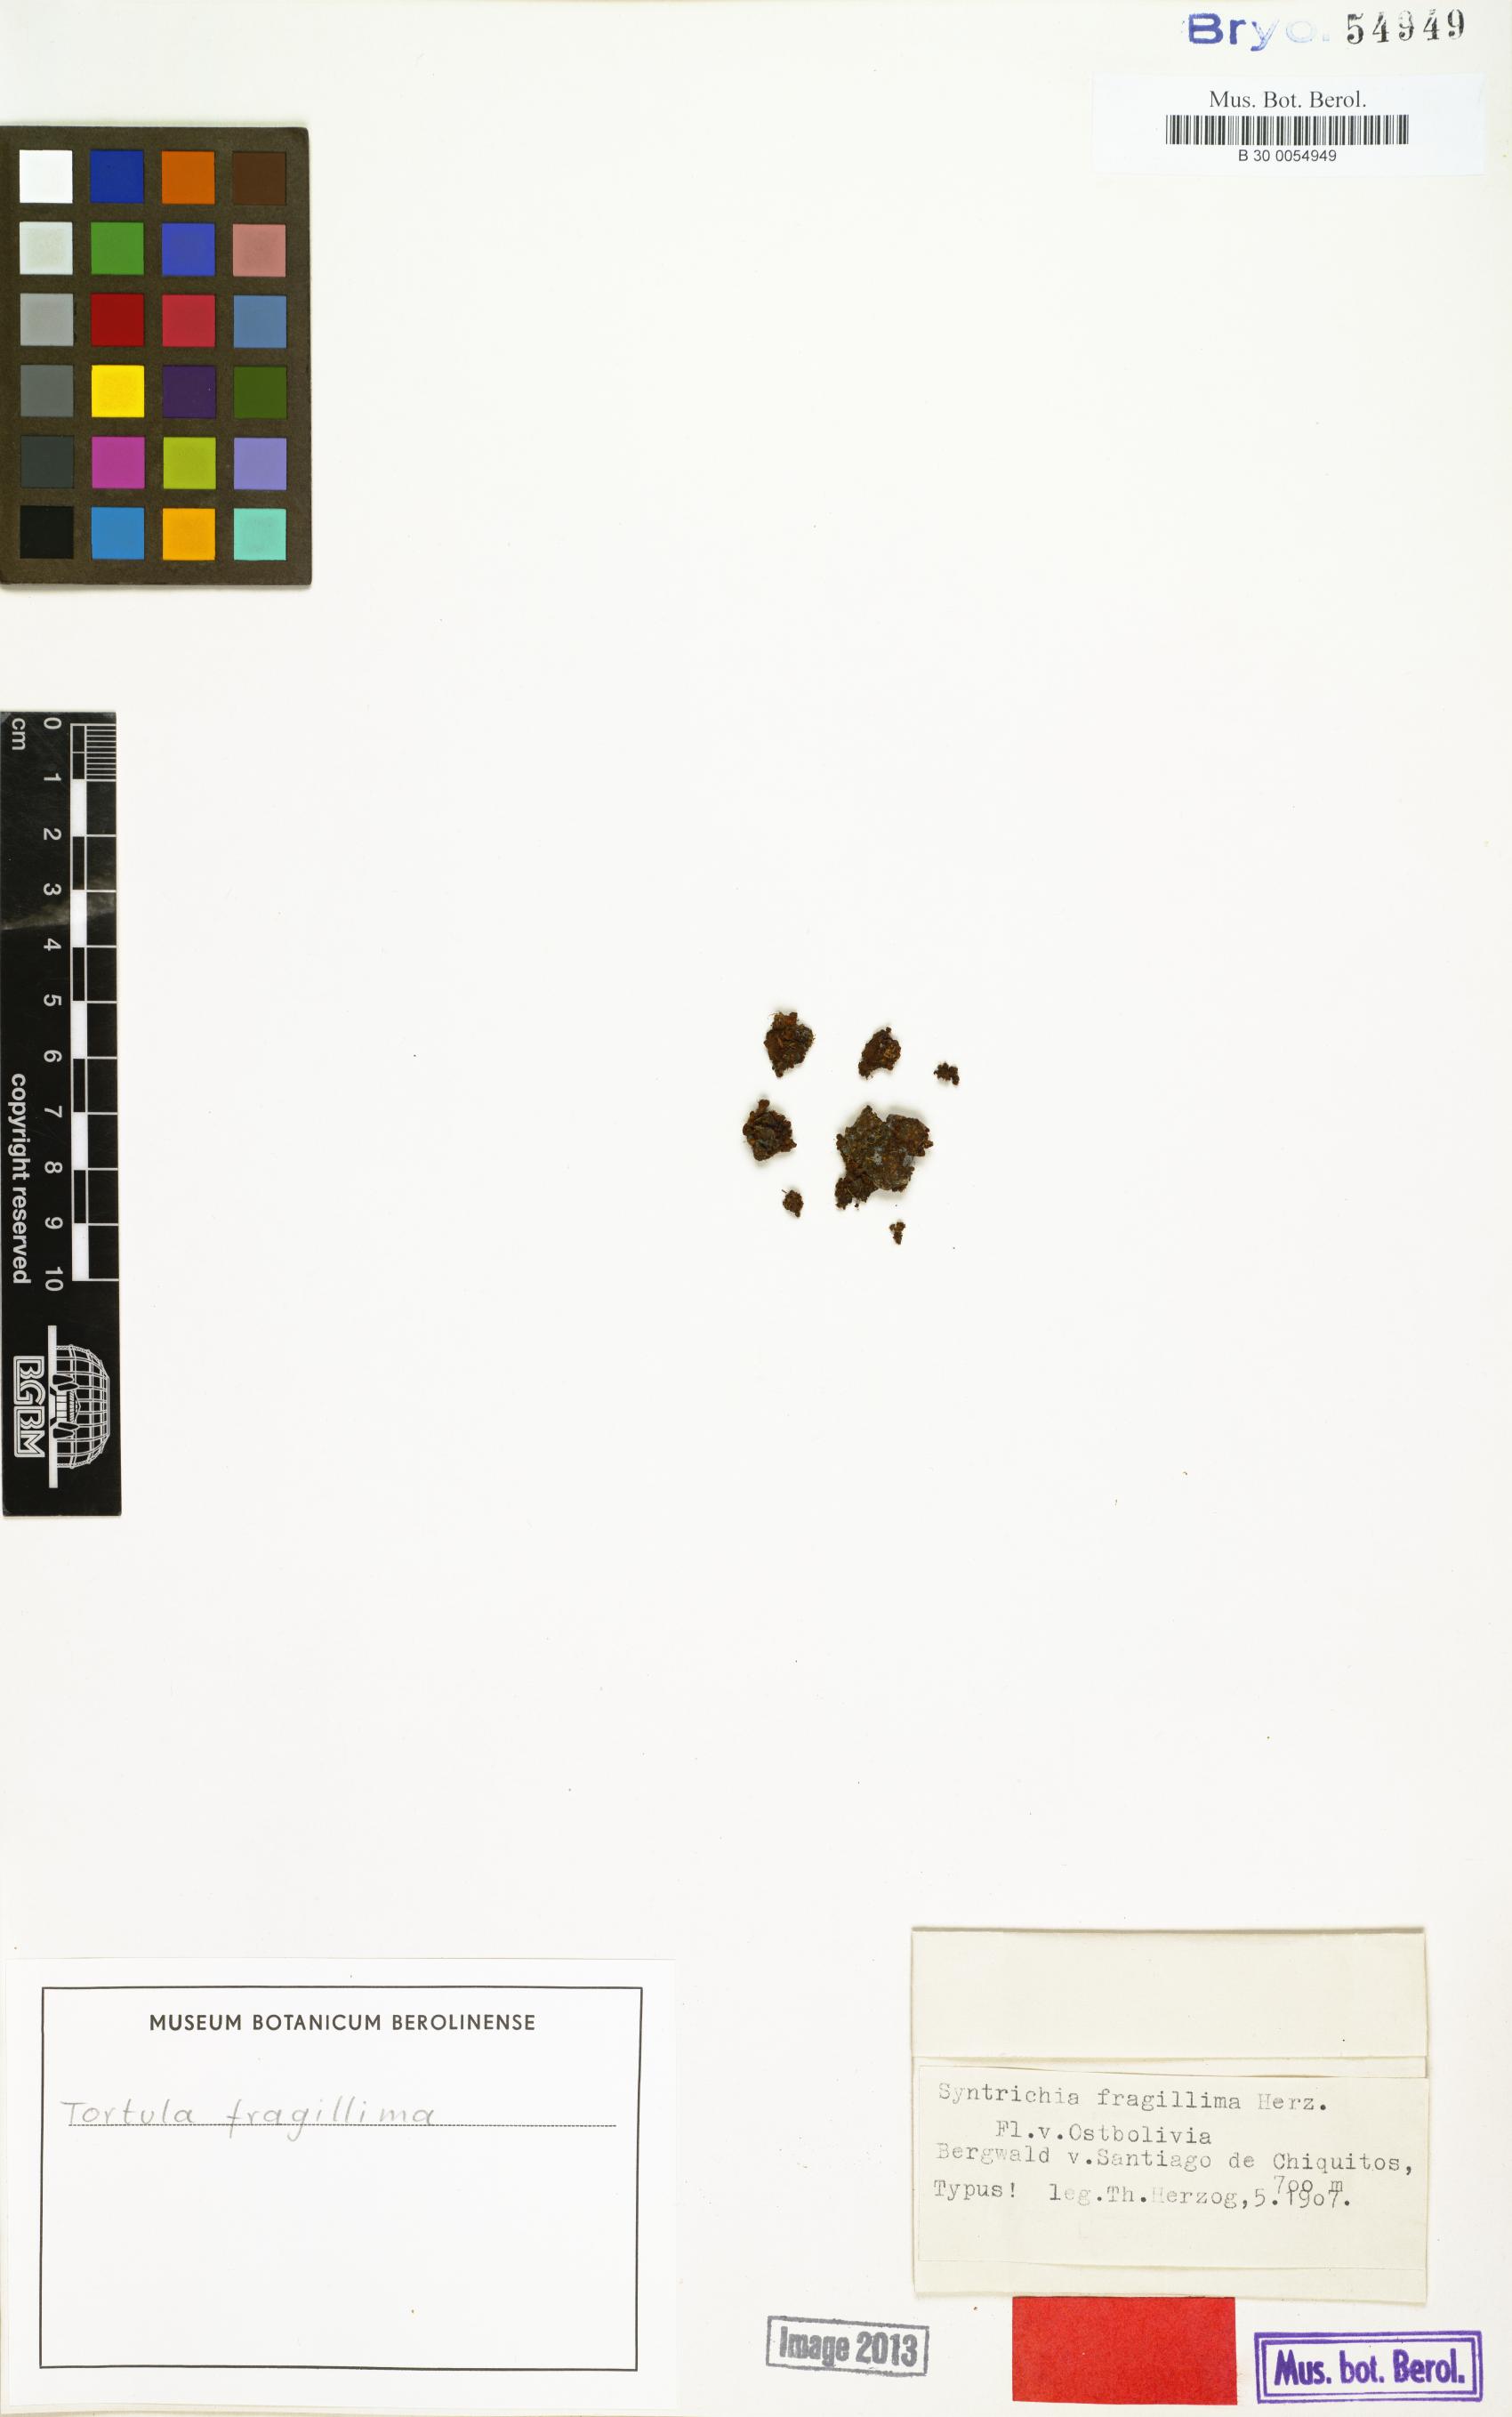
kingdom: Plantae
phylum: Bryophyta
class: Bryopsida
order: Pottiales
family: Pottiaceae
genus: Syntrichia
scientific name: Syntrichia fragilis
